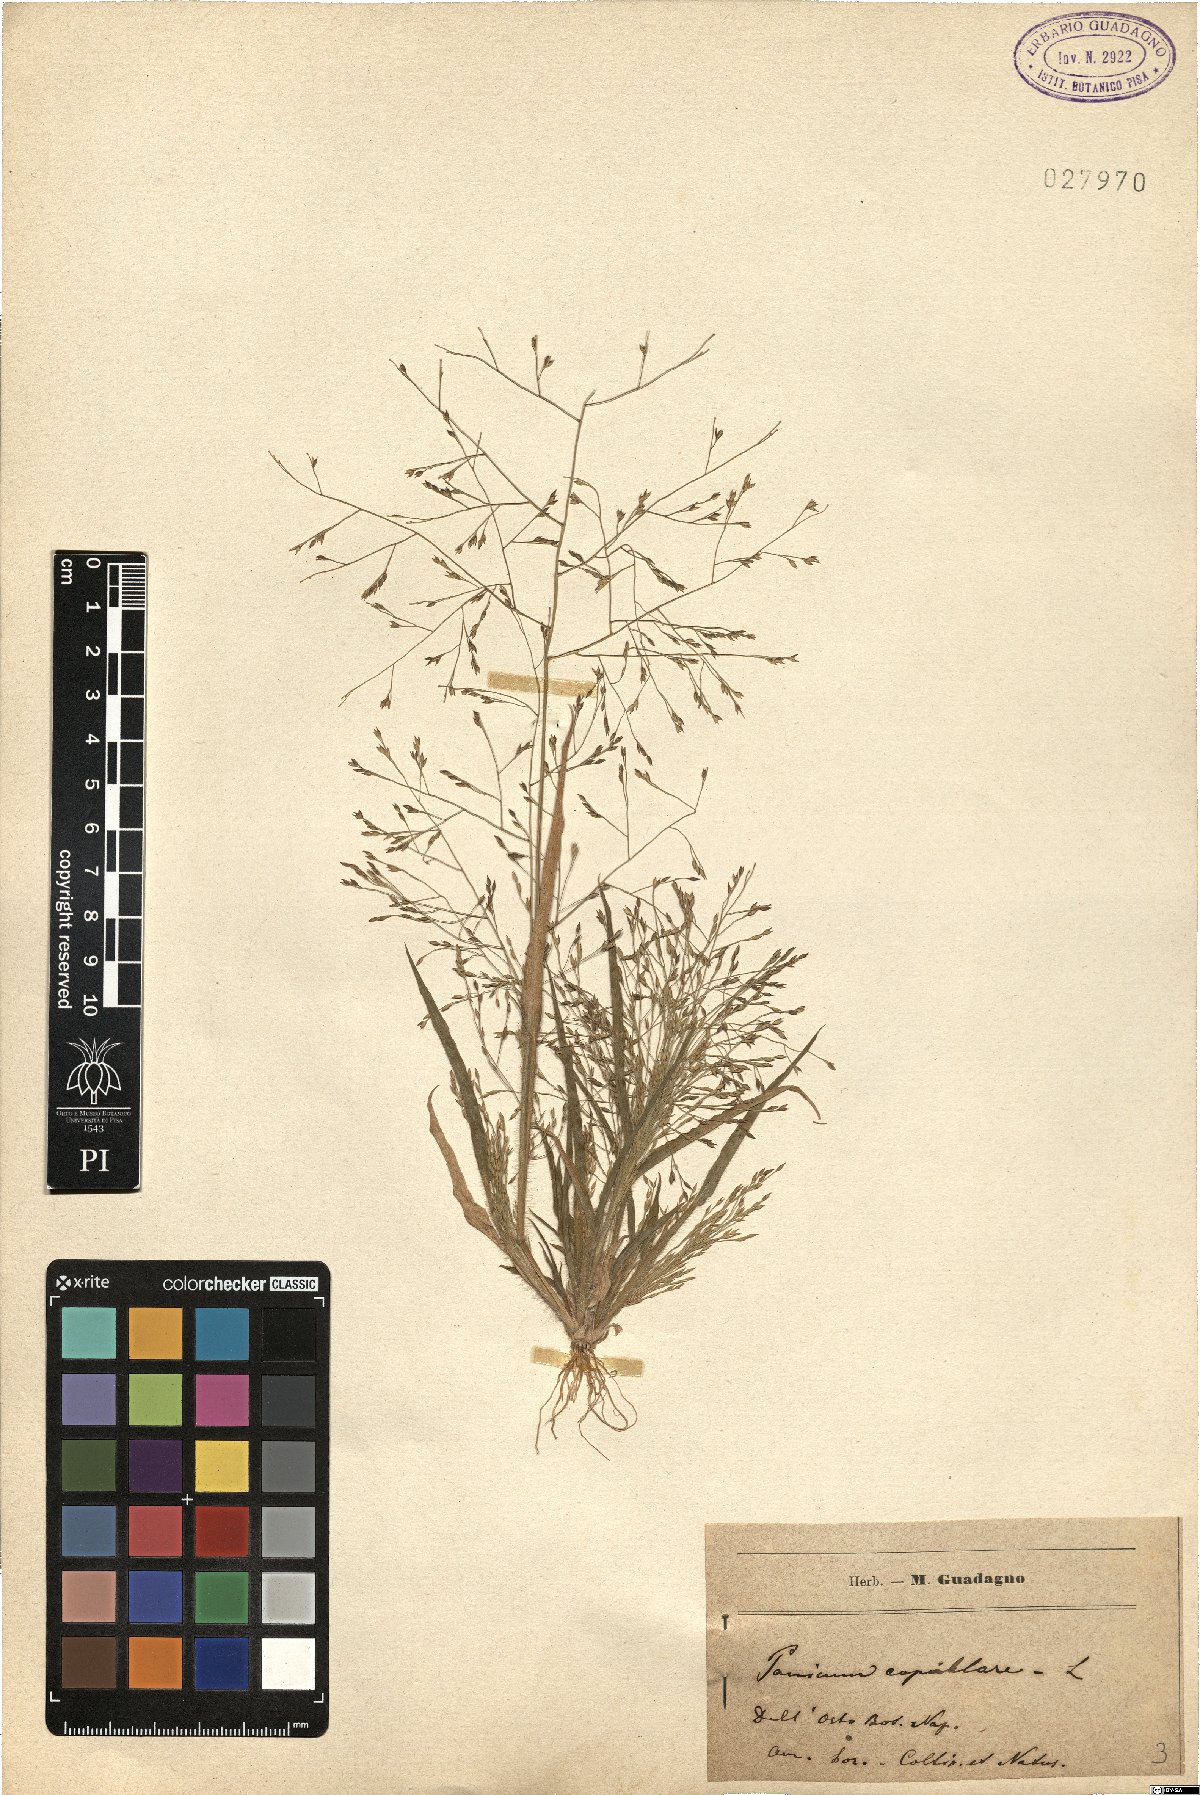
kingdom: Plantae
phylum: Tracheophyta
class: Liliopsida
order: Poales
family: Poaceae
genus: Panicum
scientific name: Panicum capillare
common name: Witch-grass
